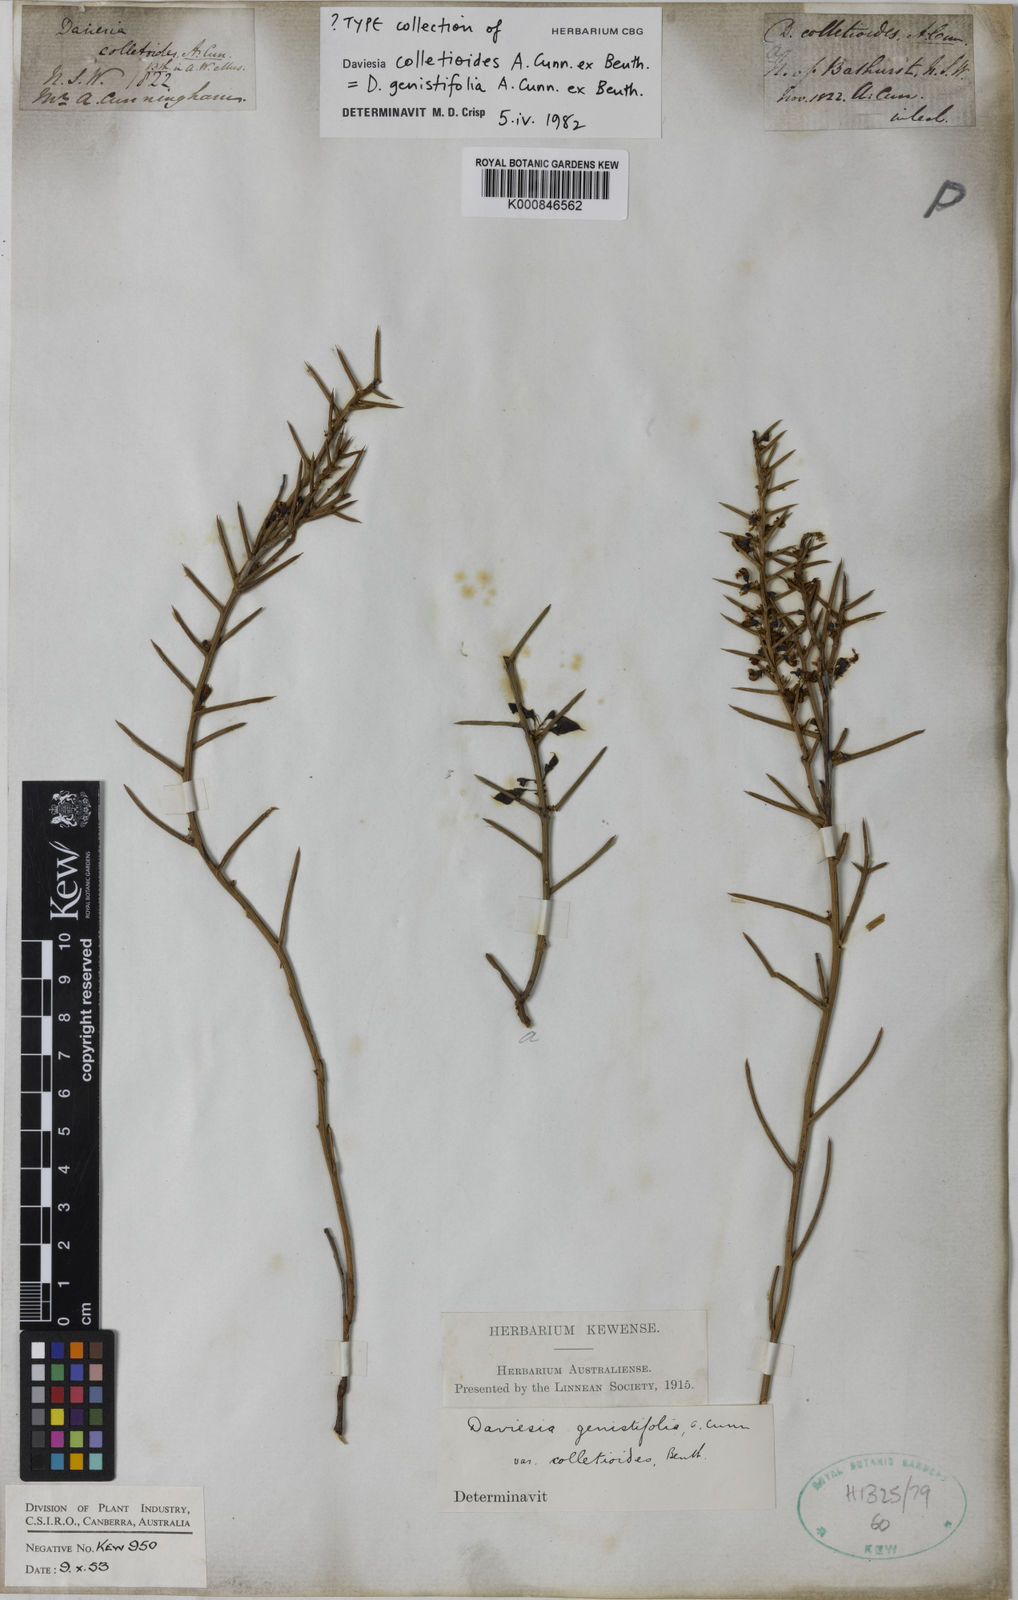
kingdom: Plantae
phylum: Tracheophyta
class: Magnoliopsida
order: Fabales
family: Fabaceae
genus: Daviesia
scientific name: Daviesia genistifolia
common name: Broom bitter-pea
